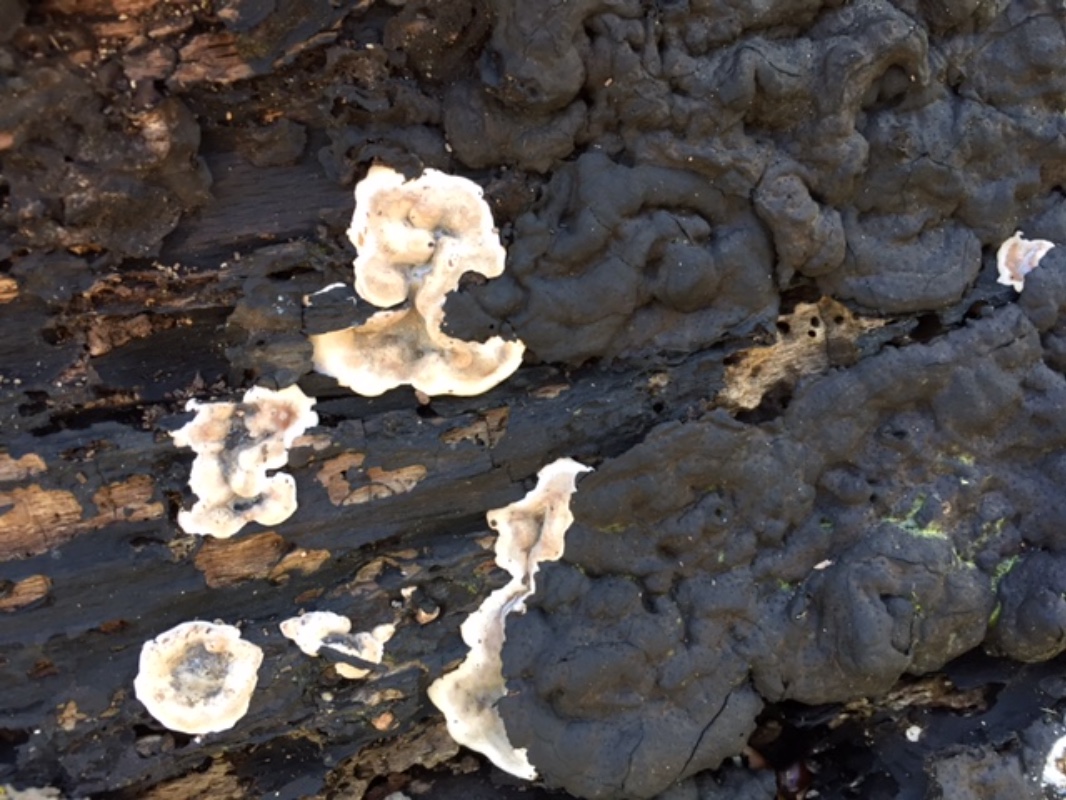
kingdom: Fungi
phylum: Ascomycota
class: Sordariomycetes
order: Xylariales
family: Xylariaceae
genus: Kretzschmaria
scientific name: Kretzschmaria deusta
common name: stor kulsvamp
